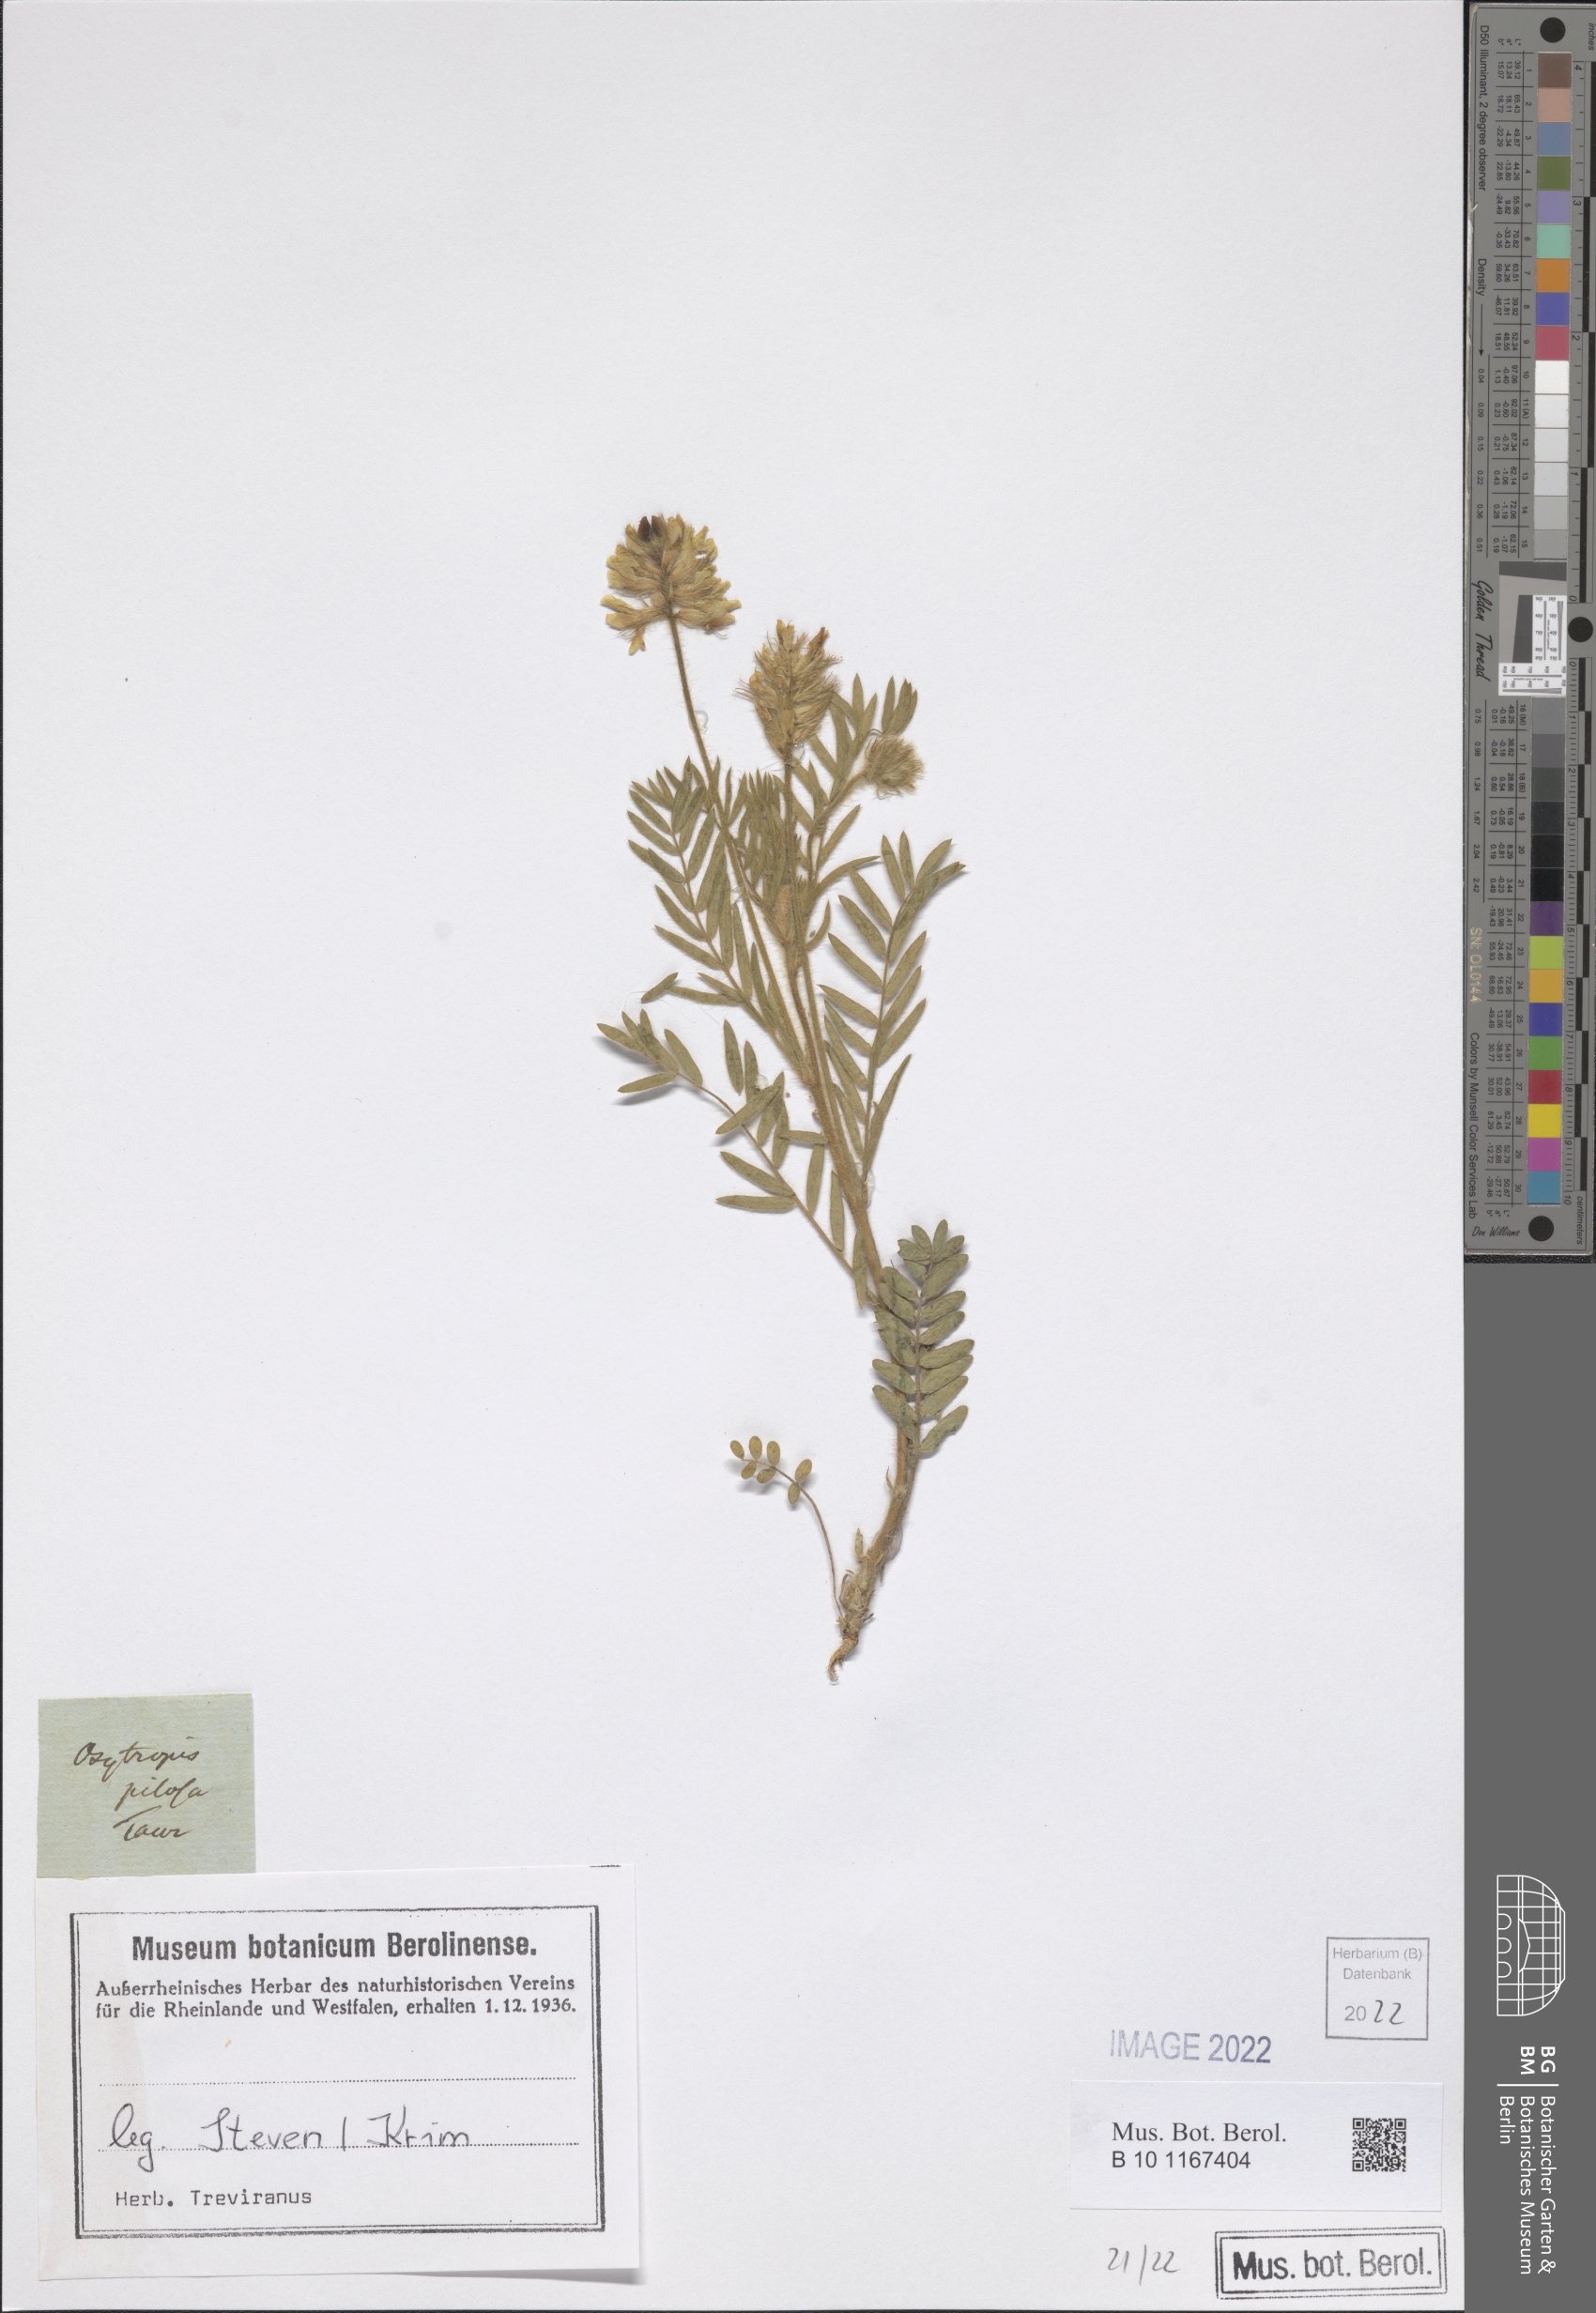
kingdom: Plantae
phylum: Tracheophyta
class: Magnoliopsida
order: Fabales
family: Fabaceae
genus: Oxytropis
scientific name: Oxytropis pilosa
